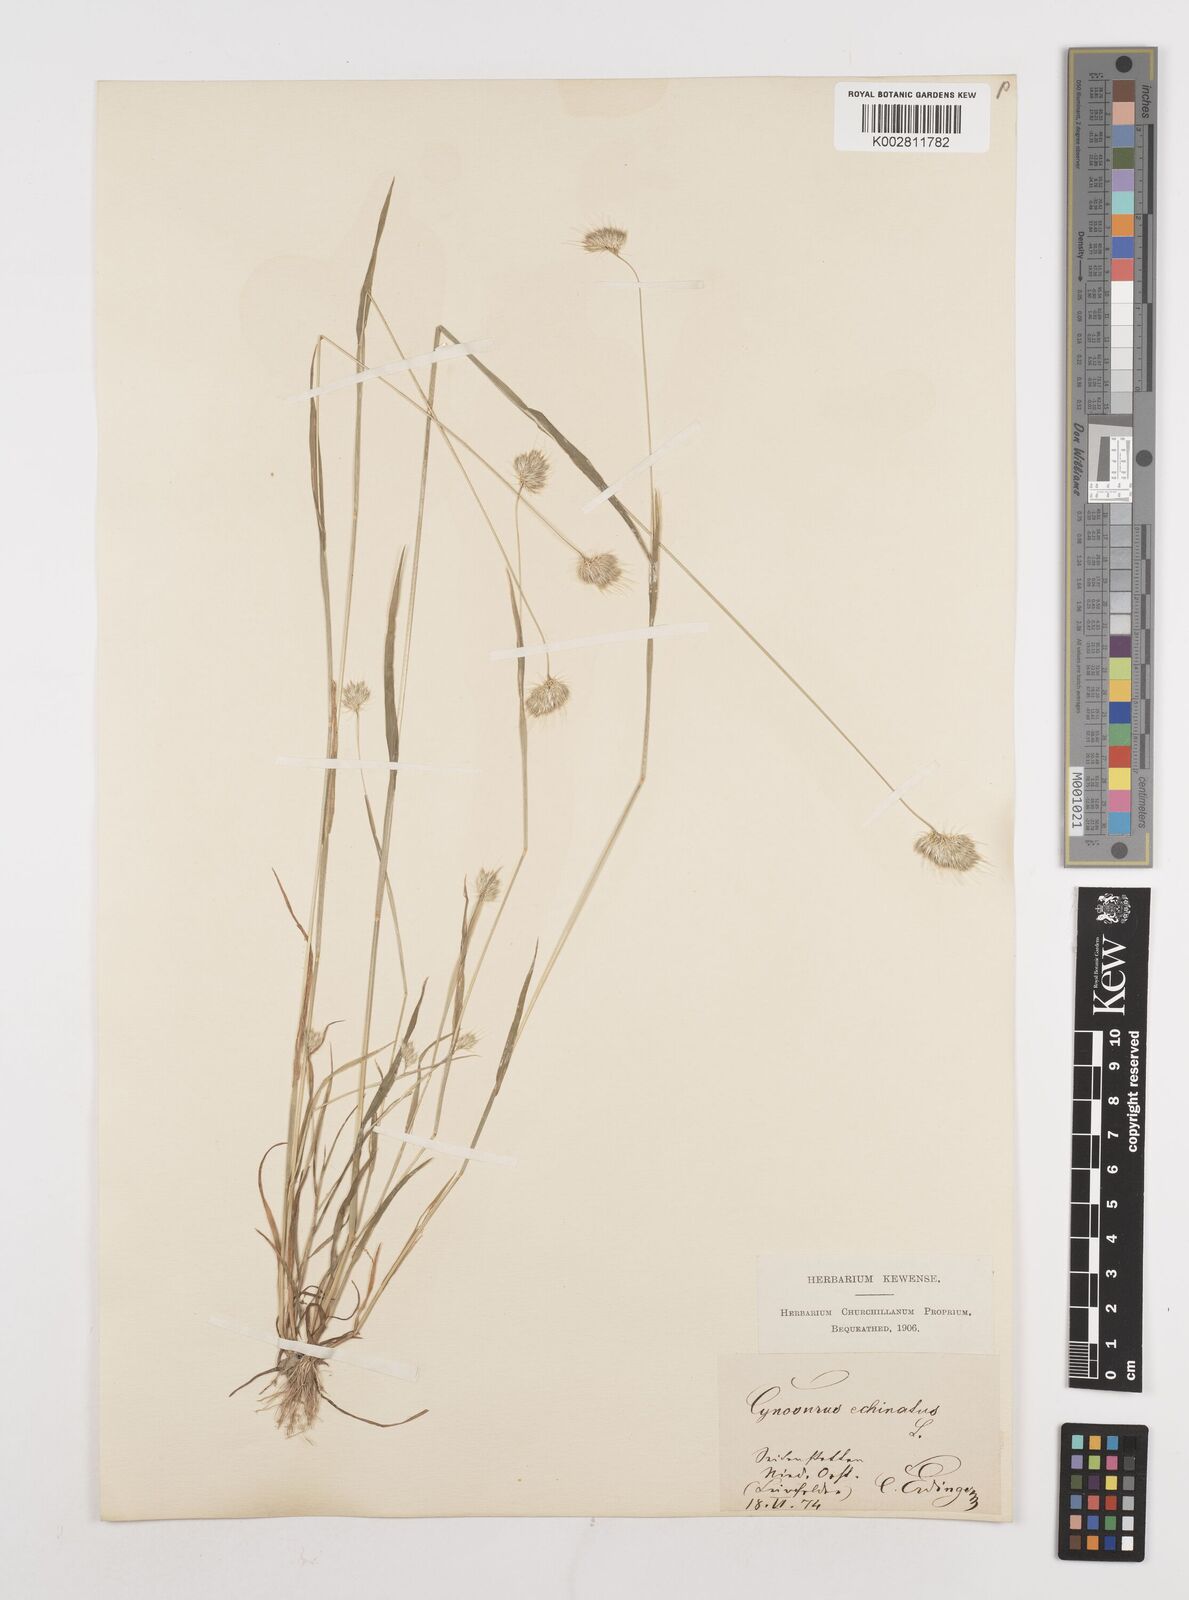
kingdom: Plantae
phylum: Tracheophyta
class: Liliopsida
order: Poales
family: Poaceae
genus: Cynosurus
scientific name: Cynosurus echinatus
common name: Rough dog's-tail
